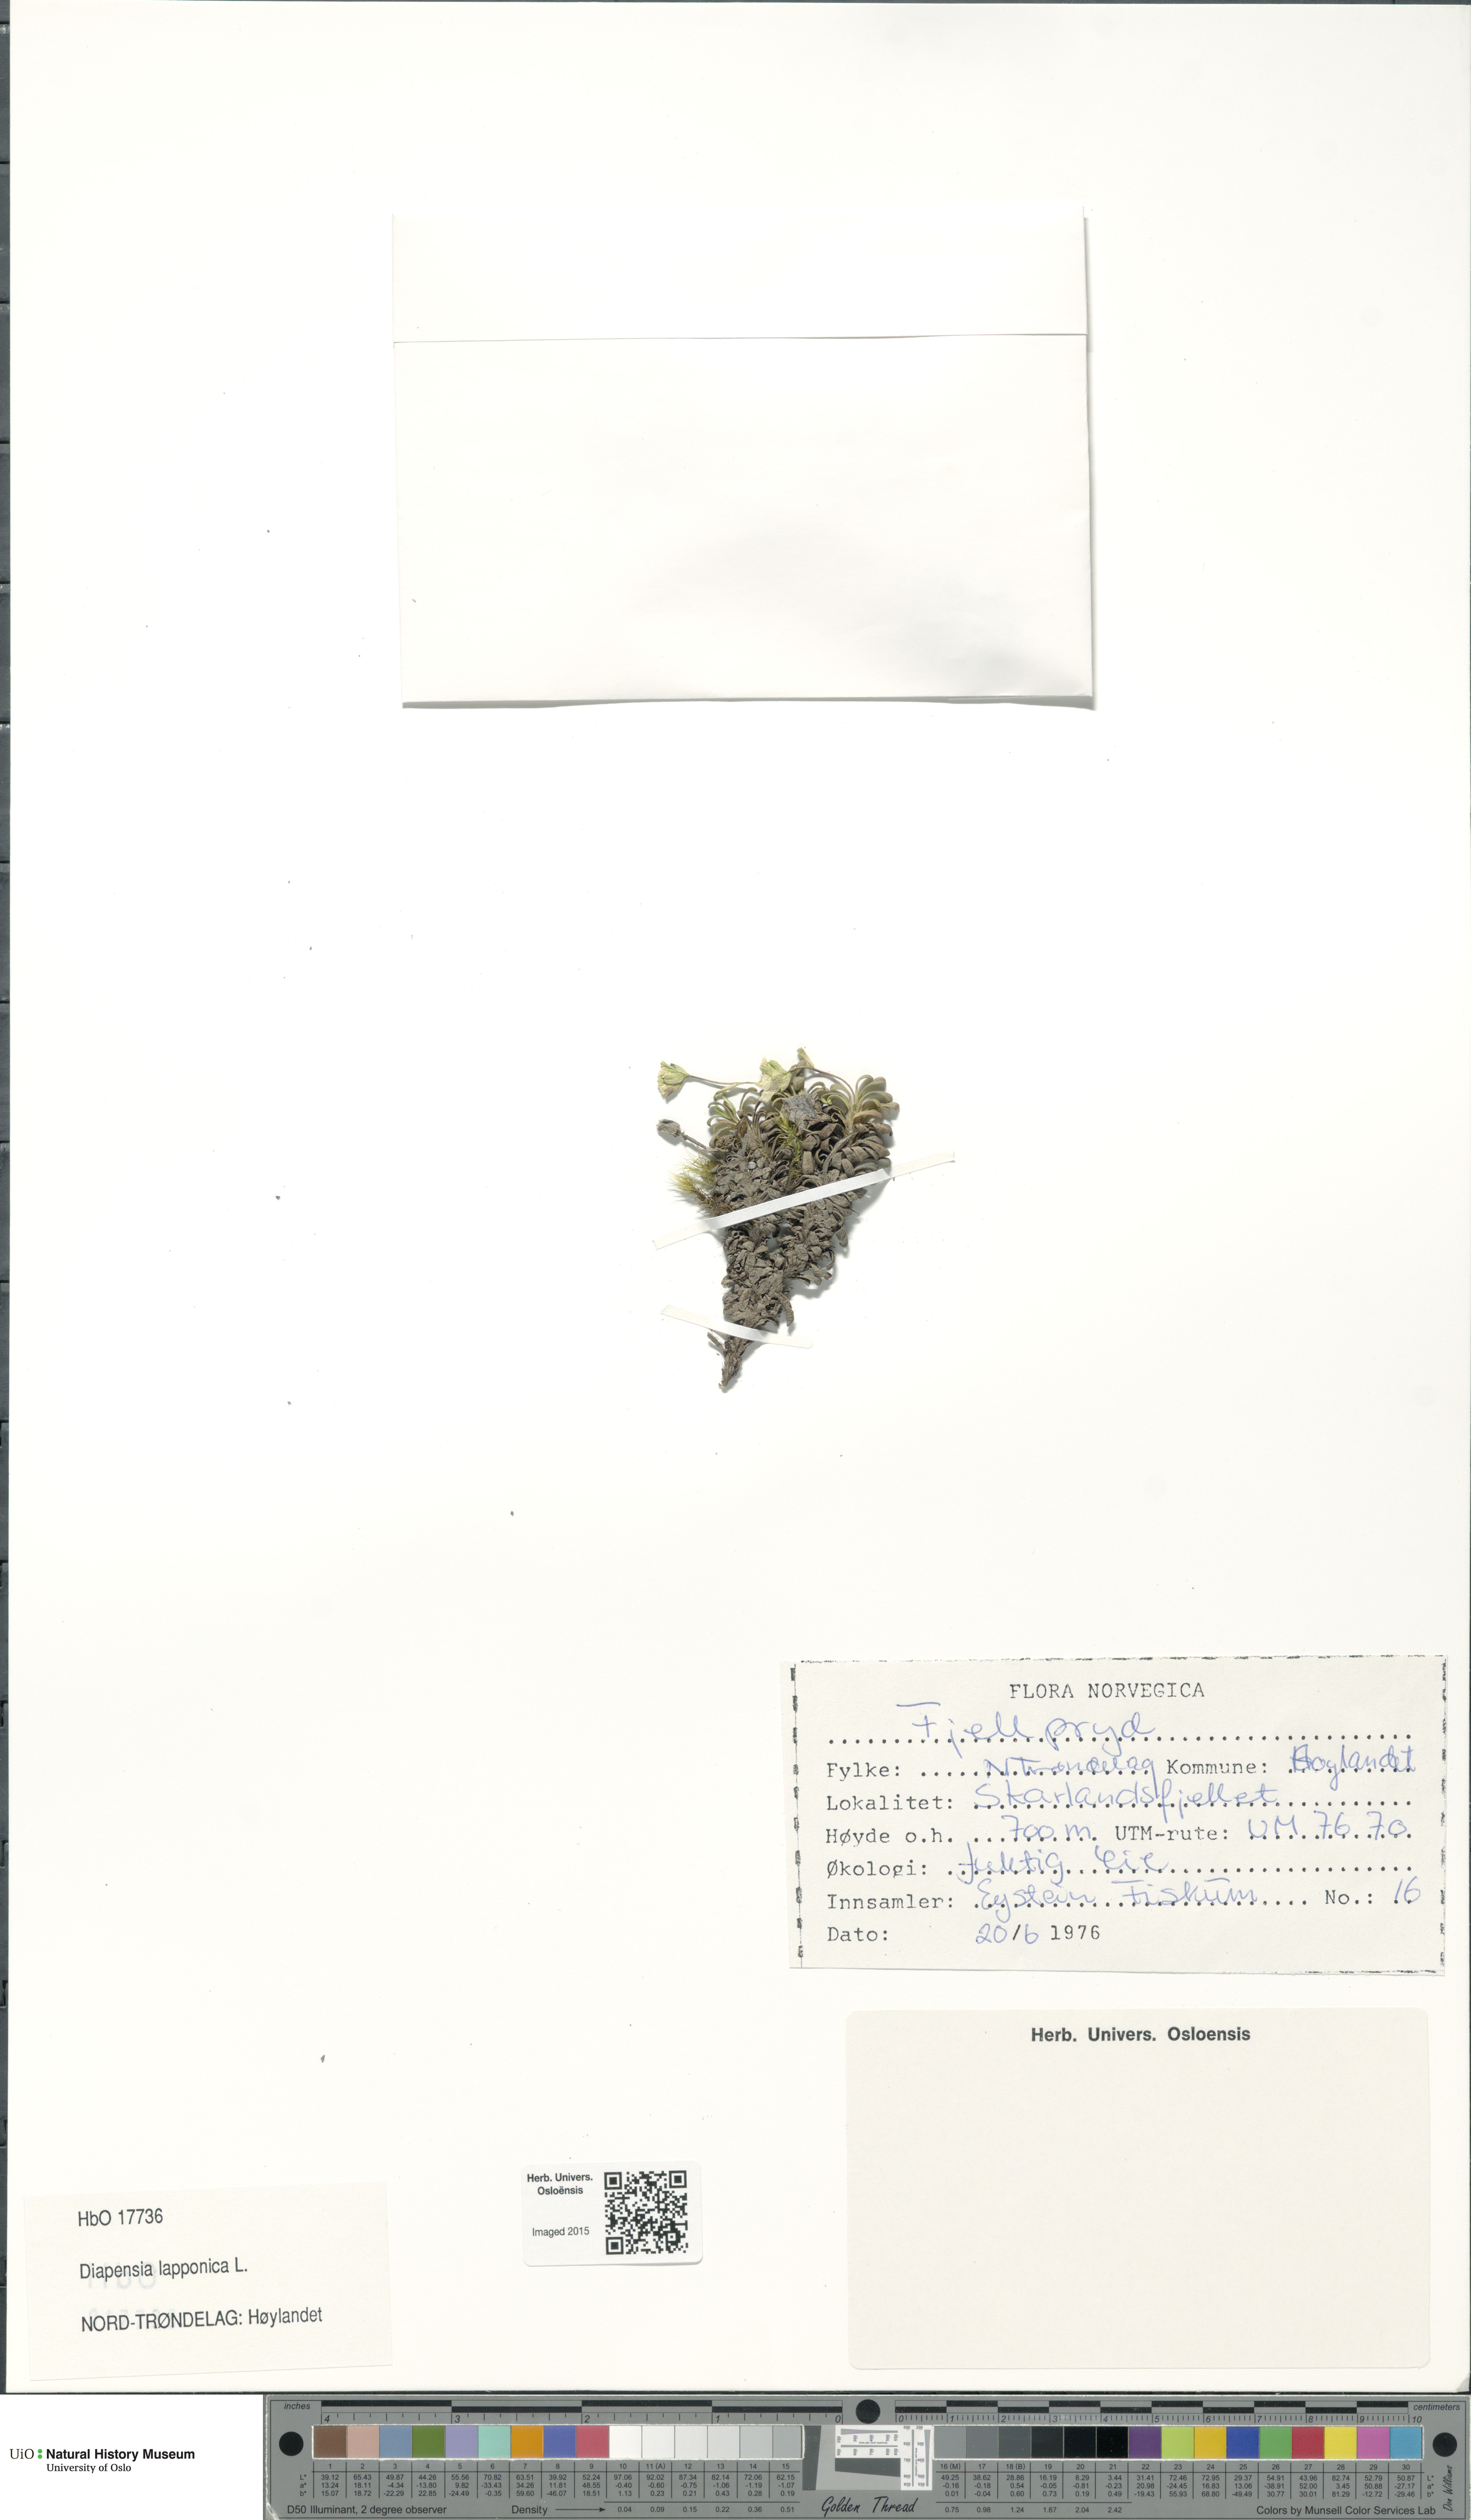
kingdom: Plantae
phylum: Tracheophyta
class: Magnoliopsida
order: Ericales
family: Diapensiaceae
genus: Diapensia
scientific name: Diapensia lapponica
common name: Diapensia
